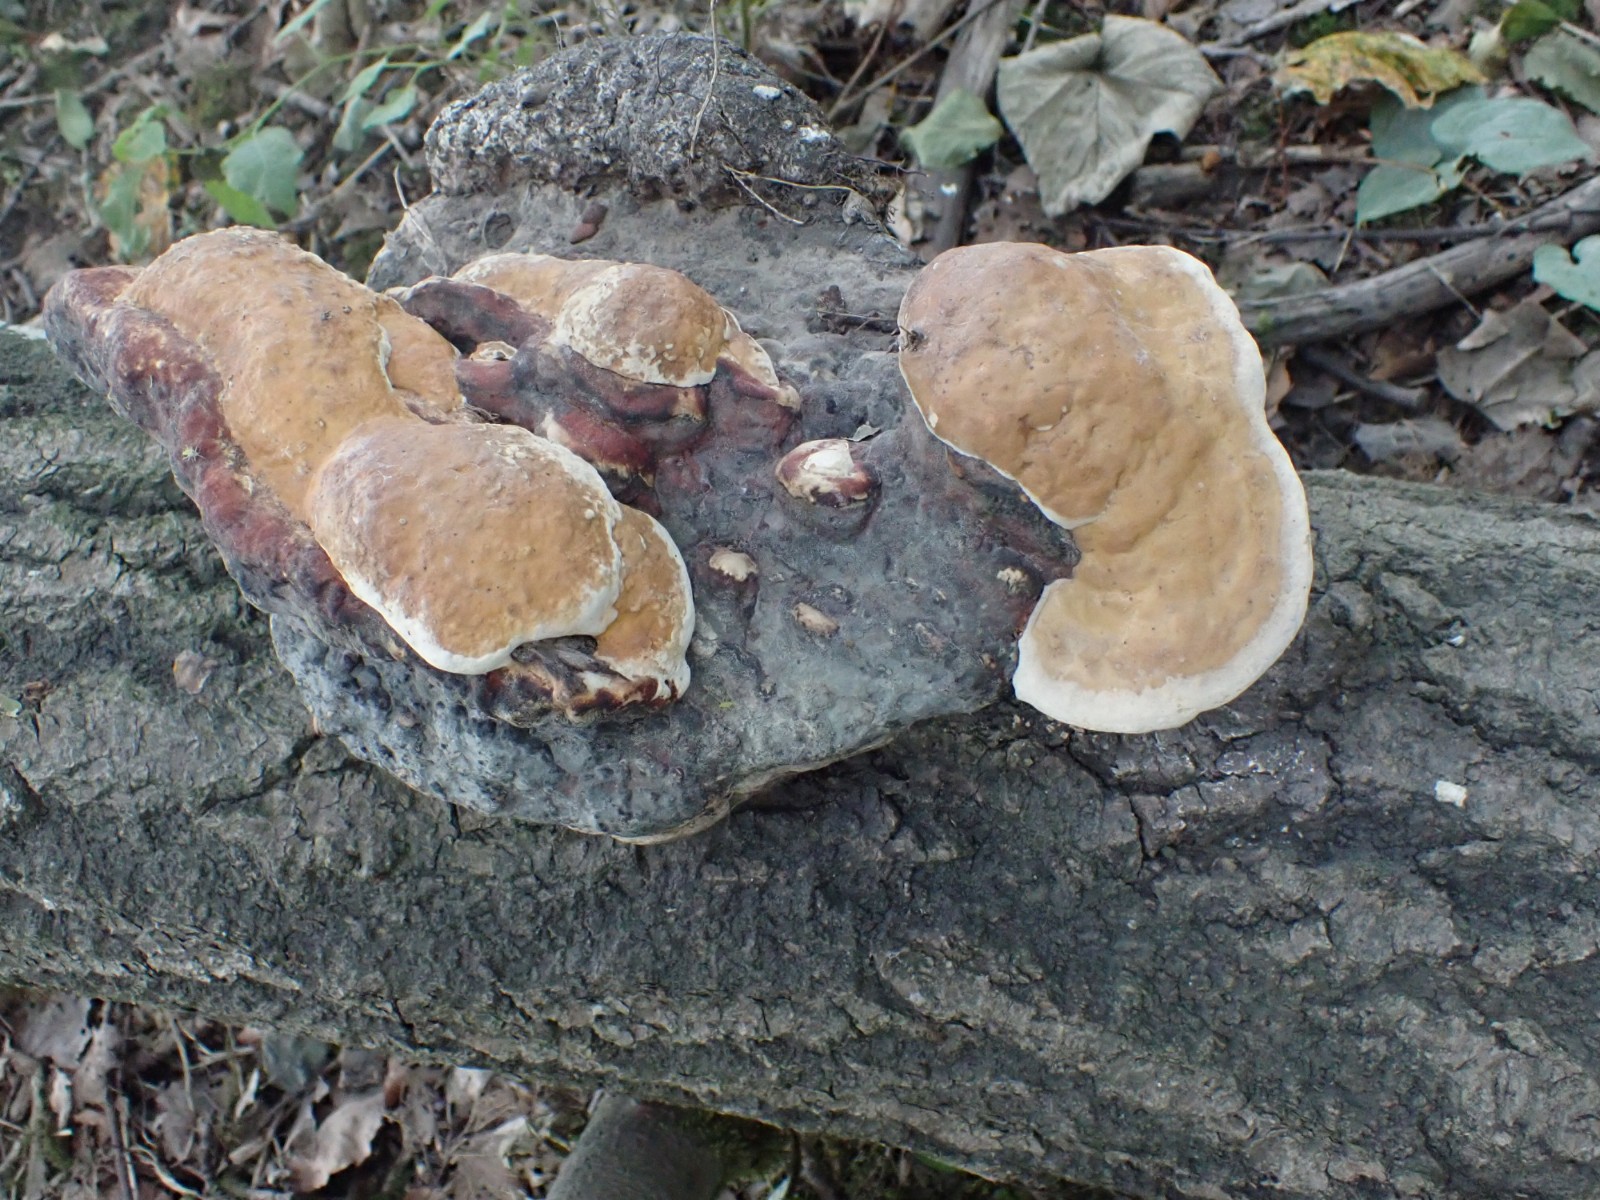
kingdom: Fungi
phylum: Basidiomycota
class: Agaricomycetes
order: Polyporales
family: Fomitopsidaceae
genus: Fomitopsis
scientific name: Fomitopsis pinicola
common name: randbæltet hovporesvamp
